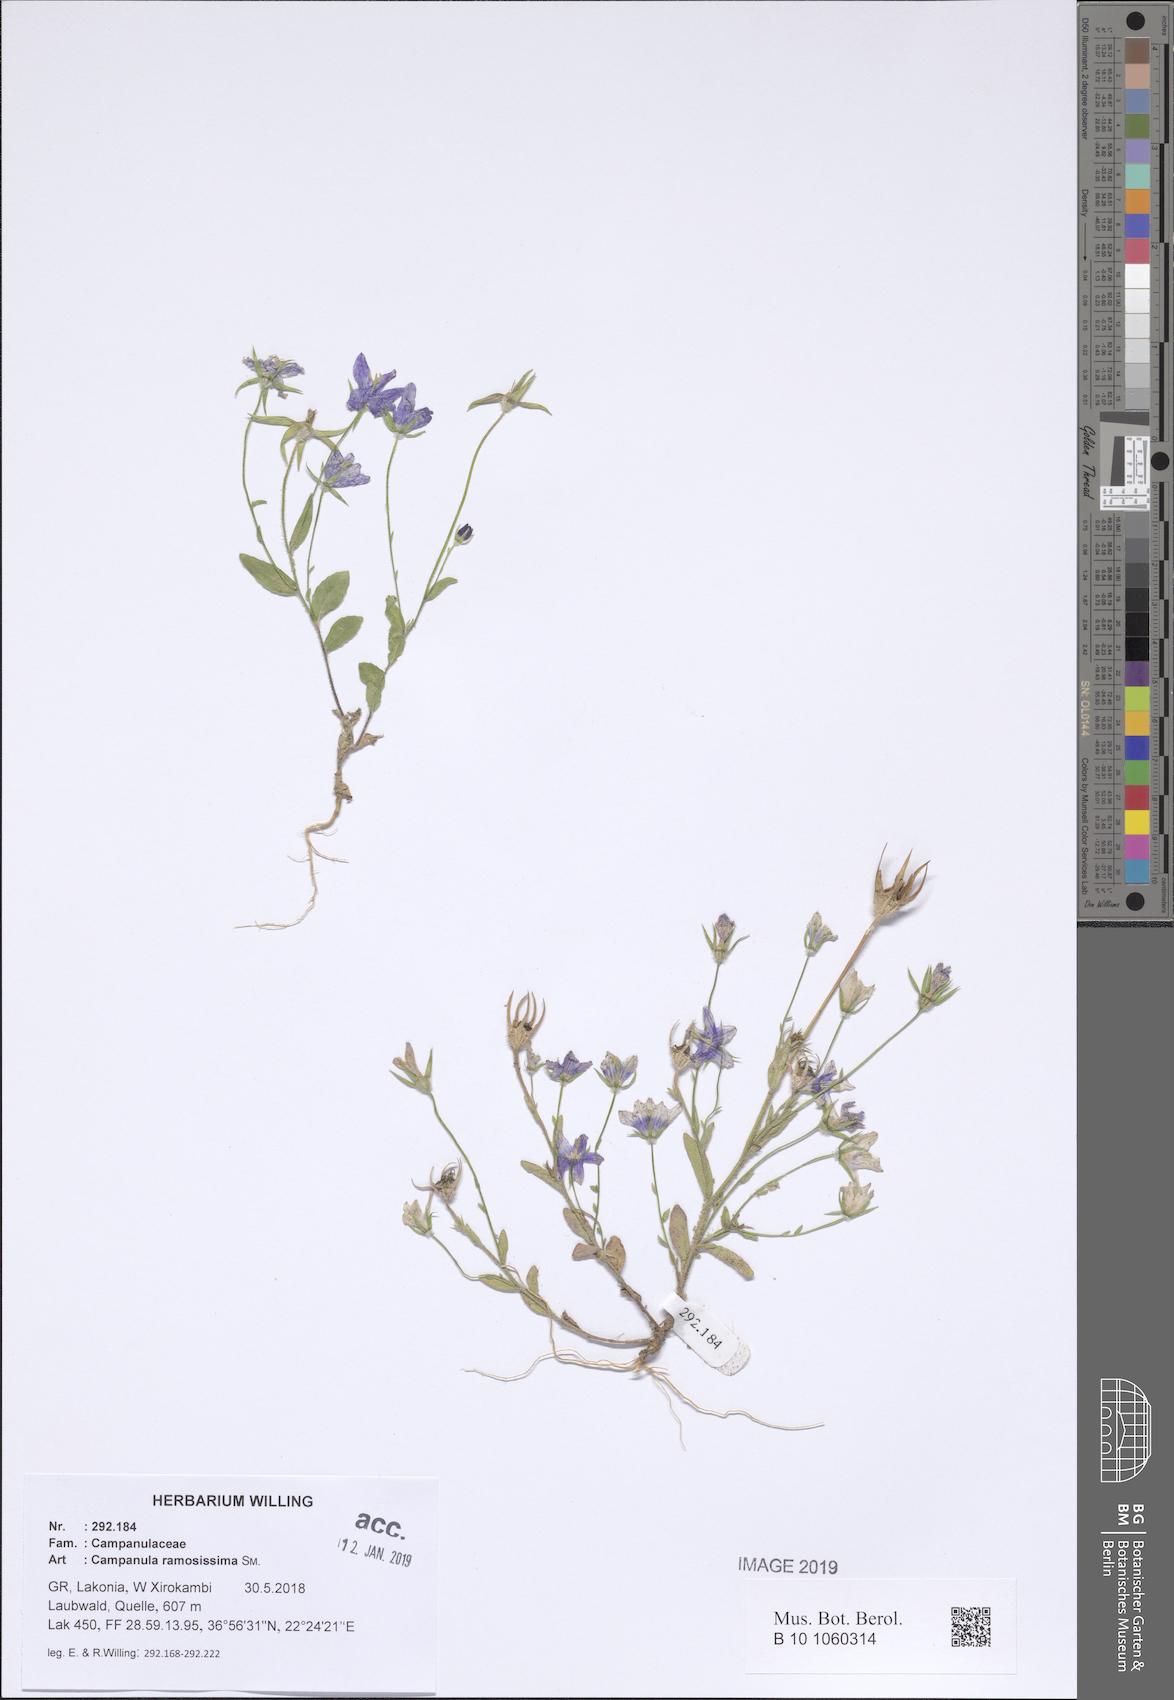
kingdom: Plantae
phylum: Tracheophyta
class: Magnoliopsida
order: Asterales
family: Campanulaceae
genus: Campanula
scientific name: Campanula ramosissima
